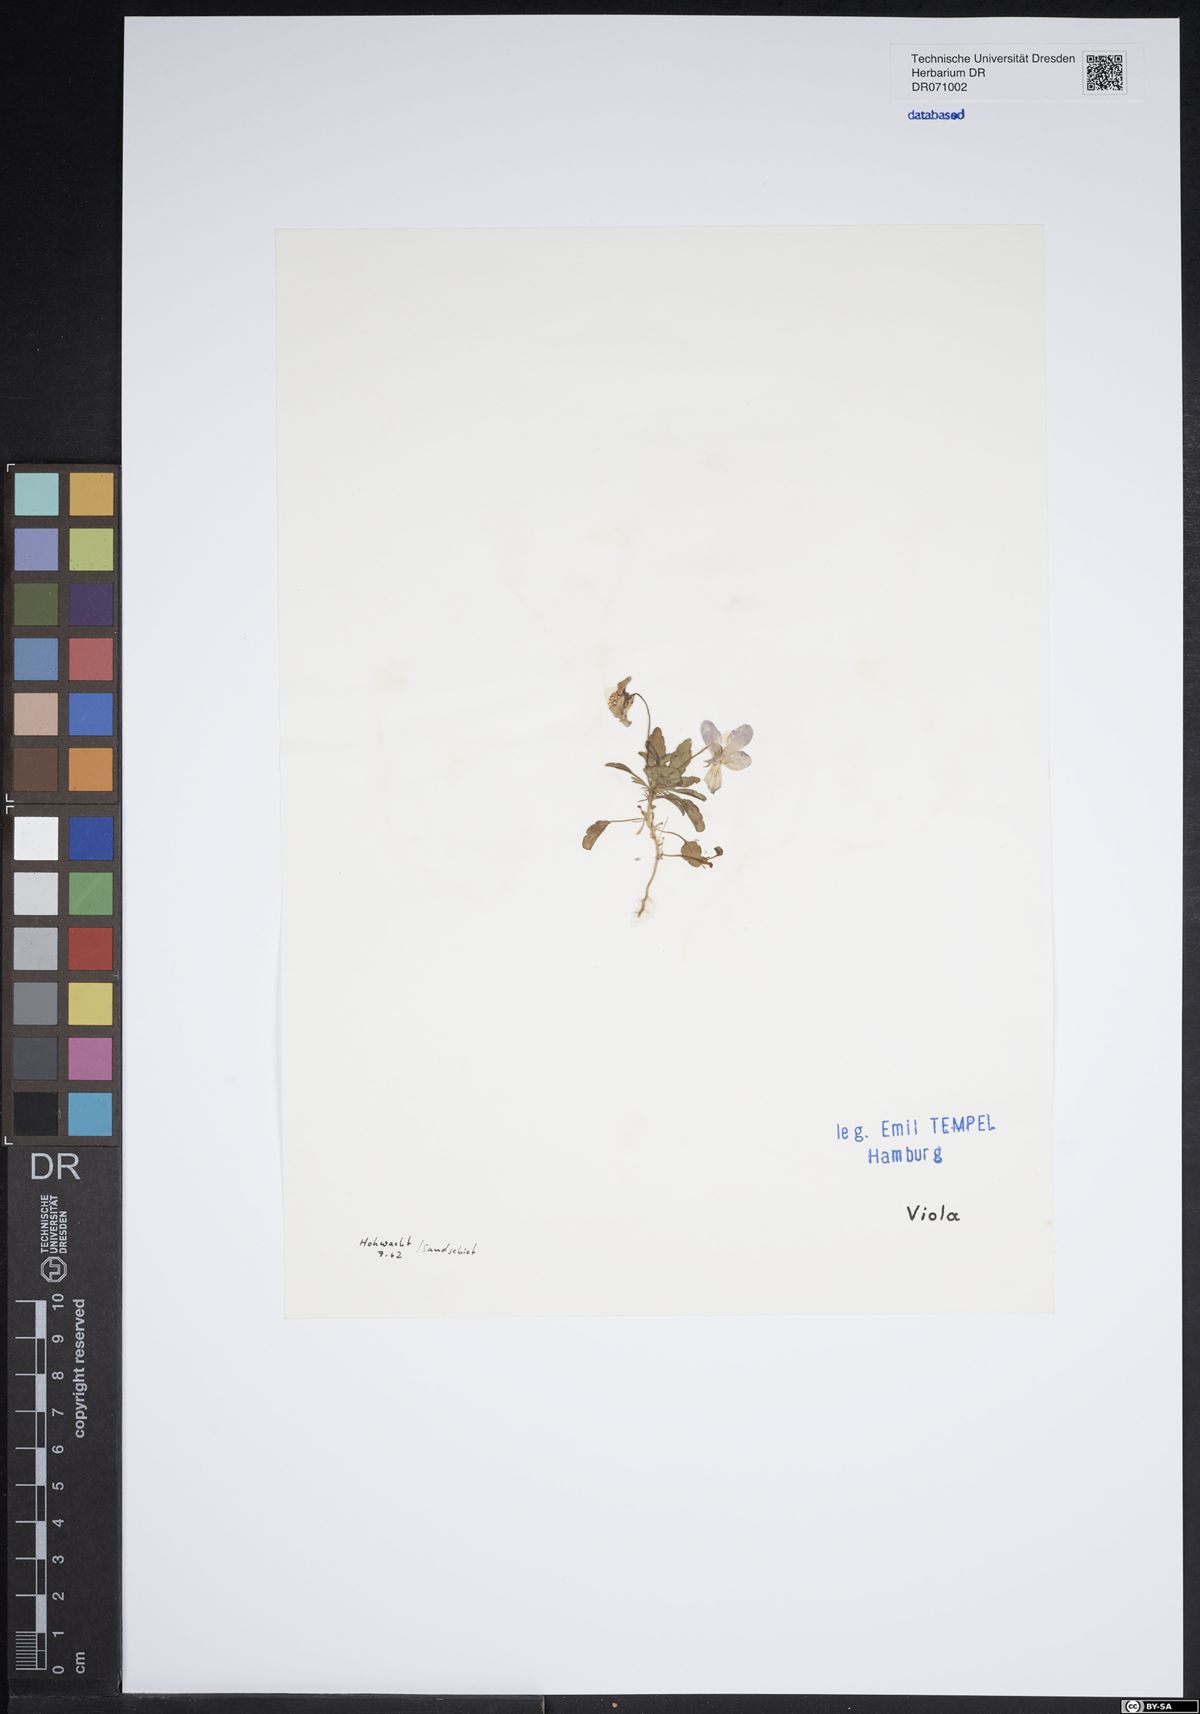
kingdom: Plantae
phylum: Tracheophyta
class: Magnoliopsida
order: Malpighiales
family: Violaceae
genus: Viola
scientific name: Viola
